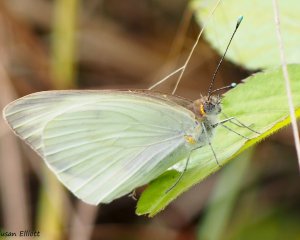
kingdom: Animalia
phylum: Arthropoda
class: Insecta
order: Lepidoptera
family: Pieridae
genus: Ascia
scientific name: Ascia monuste
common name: Great Southern White
